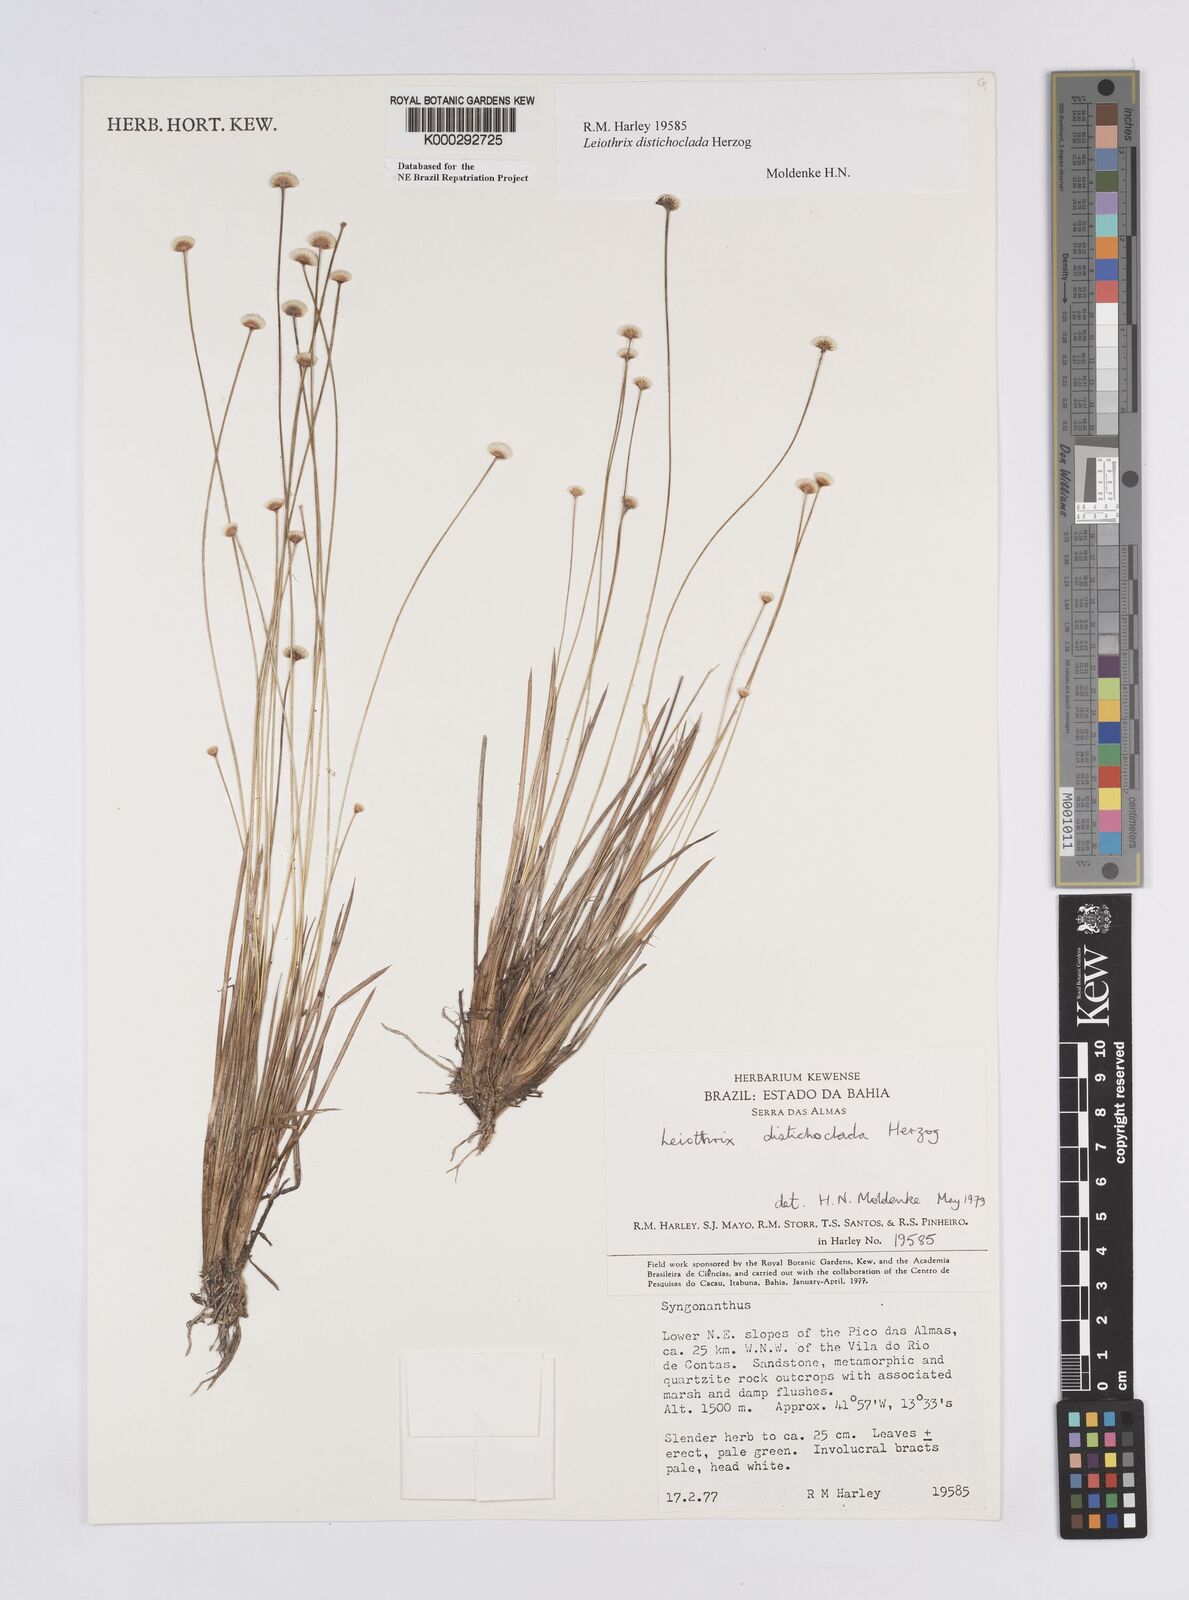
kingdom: Plantae
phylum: Tracheophyta
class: Liliopsida
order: Poales
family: Eriocaulaceae
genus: Leiothrix
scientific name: Leiothrix distichoclada
